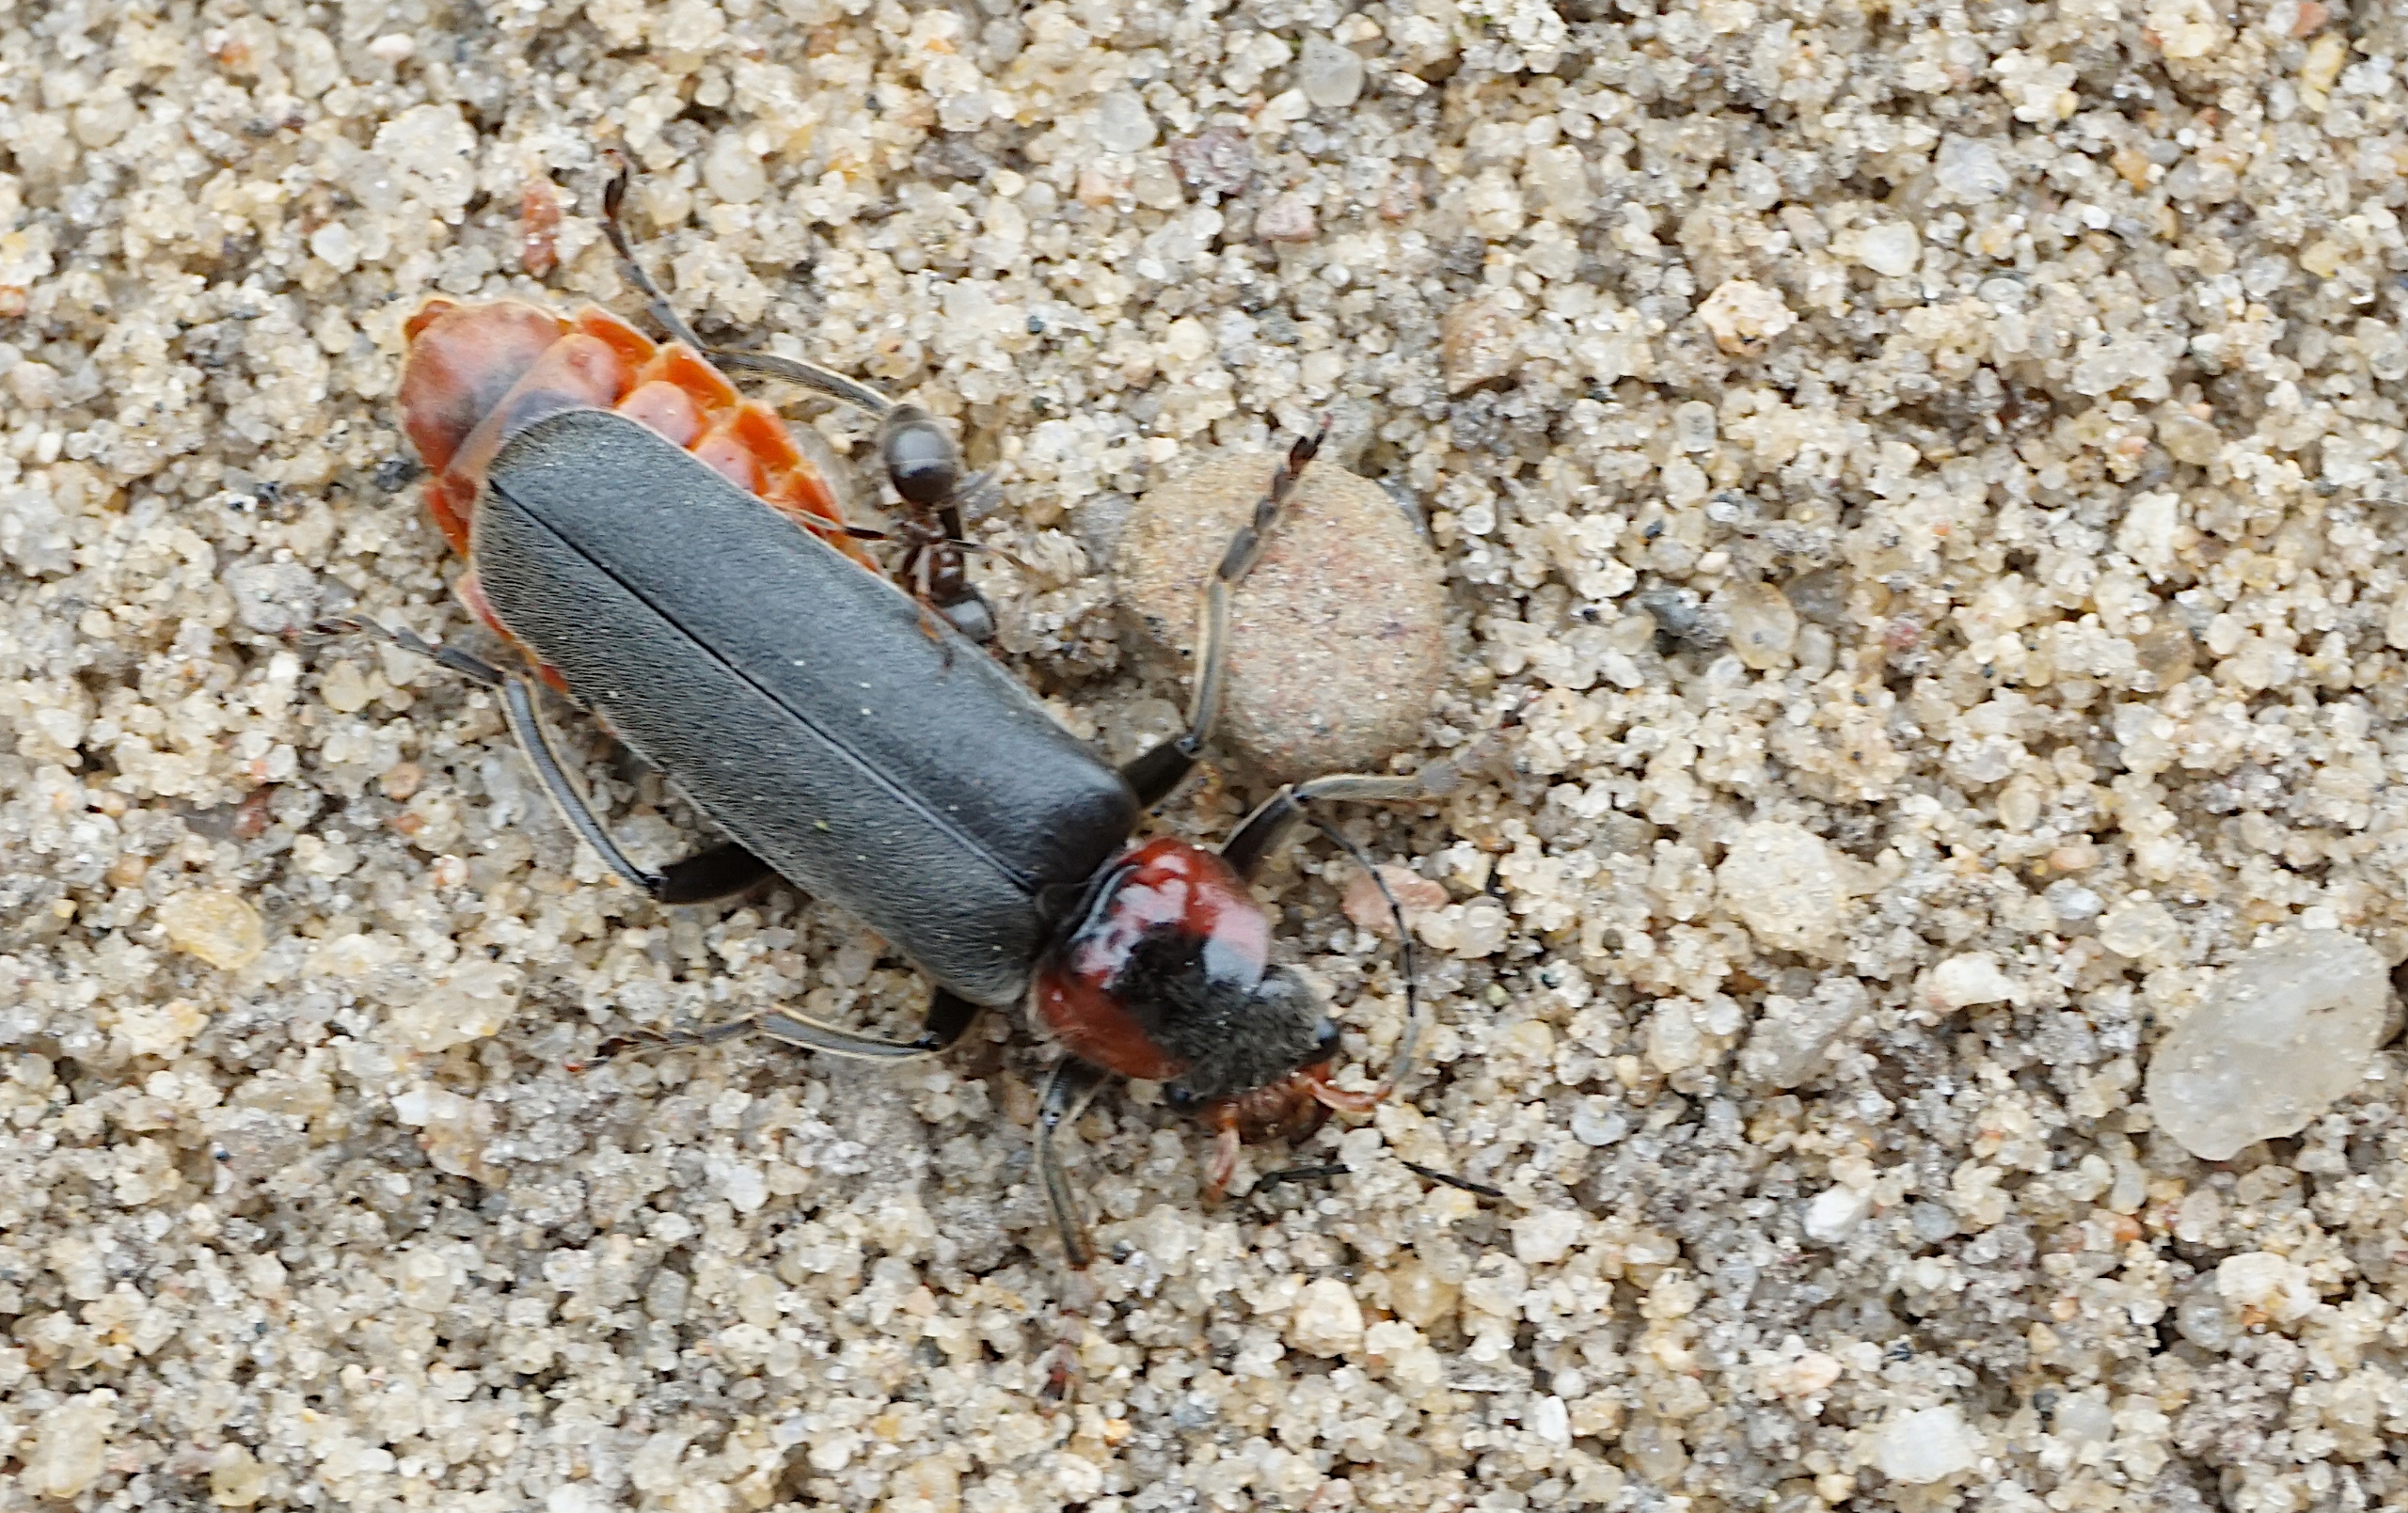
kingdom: Animalia
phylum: Arthropoda
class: Insecta
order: Coleoptera
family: Cantharidae
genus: Cantharis
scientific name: Cantharis fusca
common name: Stor blødvinge
